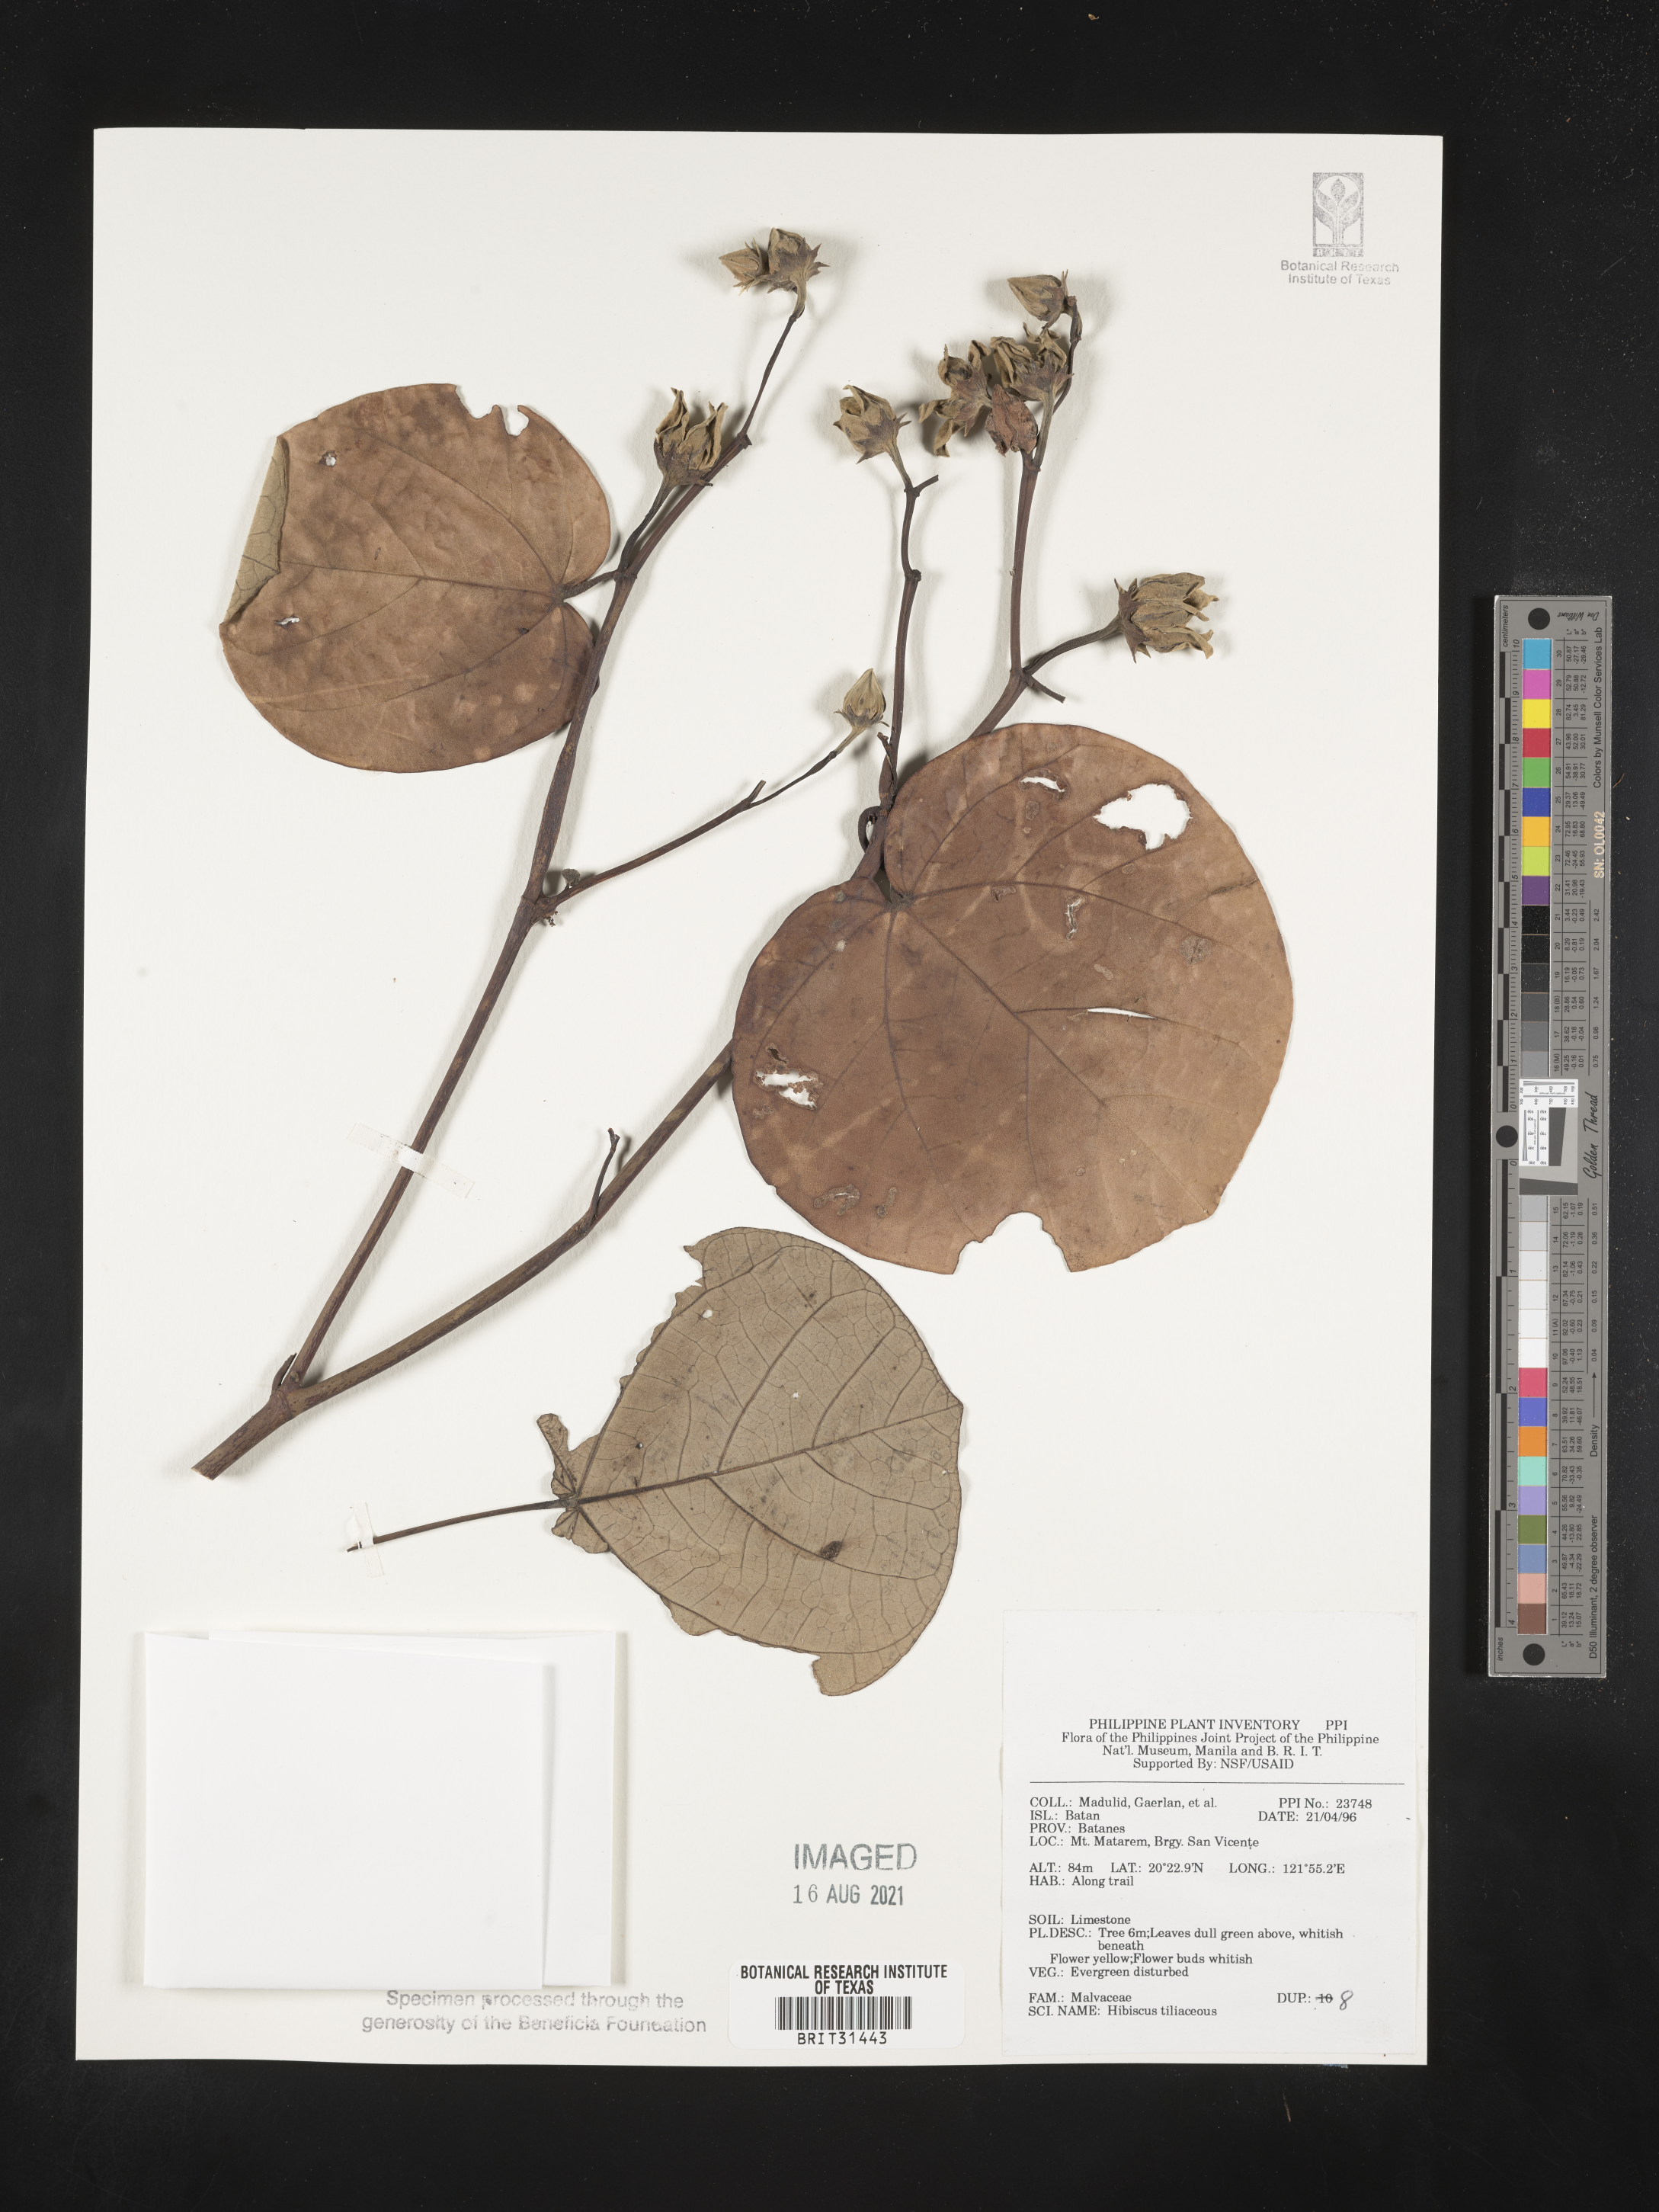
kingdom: Plantae
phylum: Tracheophyta
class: Magnoliopsida
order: Malvales
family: Malvaceae
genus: Talipariti
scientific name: Talipariti tiliaceum
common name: Sea hibiscus
